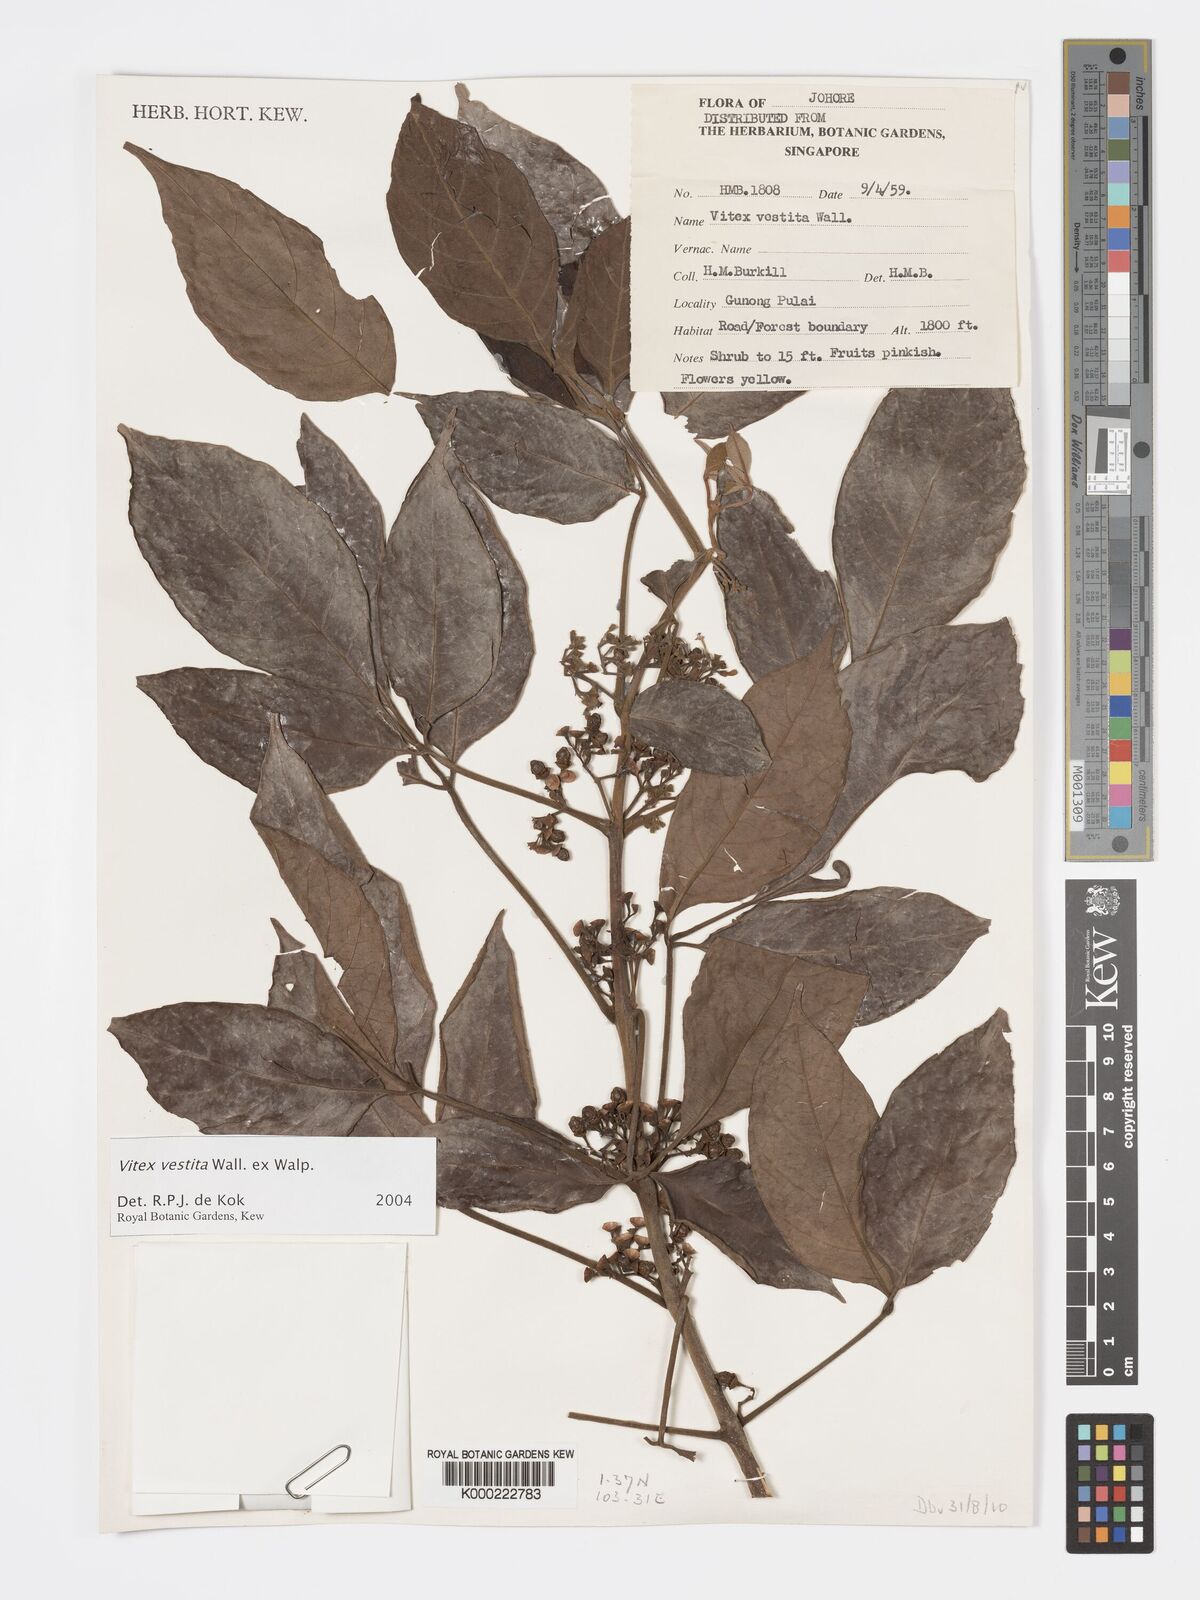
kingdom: Plantae
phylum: Tracheophyta
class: Magnoliopsida
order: Lamiales
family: Lamiaceae
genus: Vitex
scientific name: Vitex vestita
